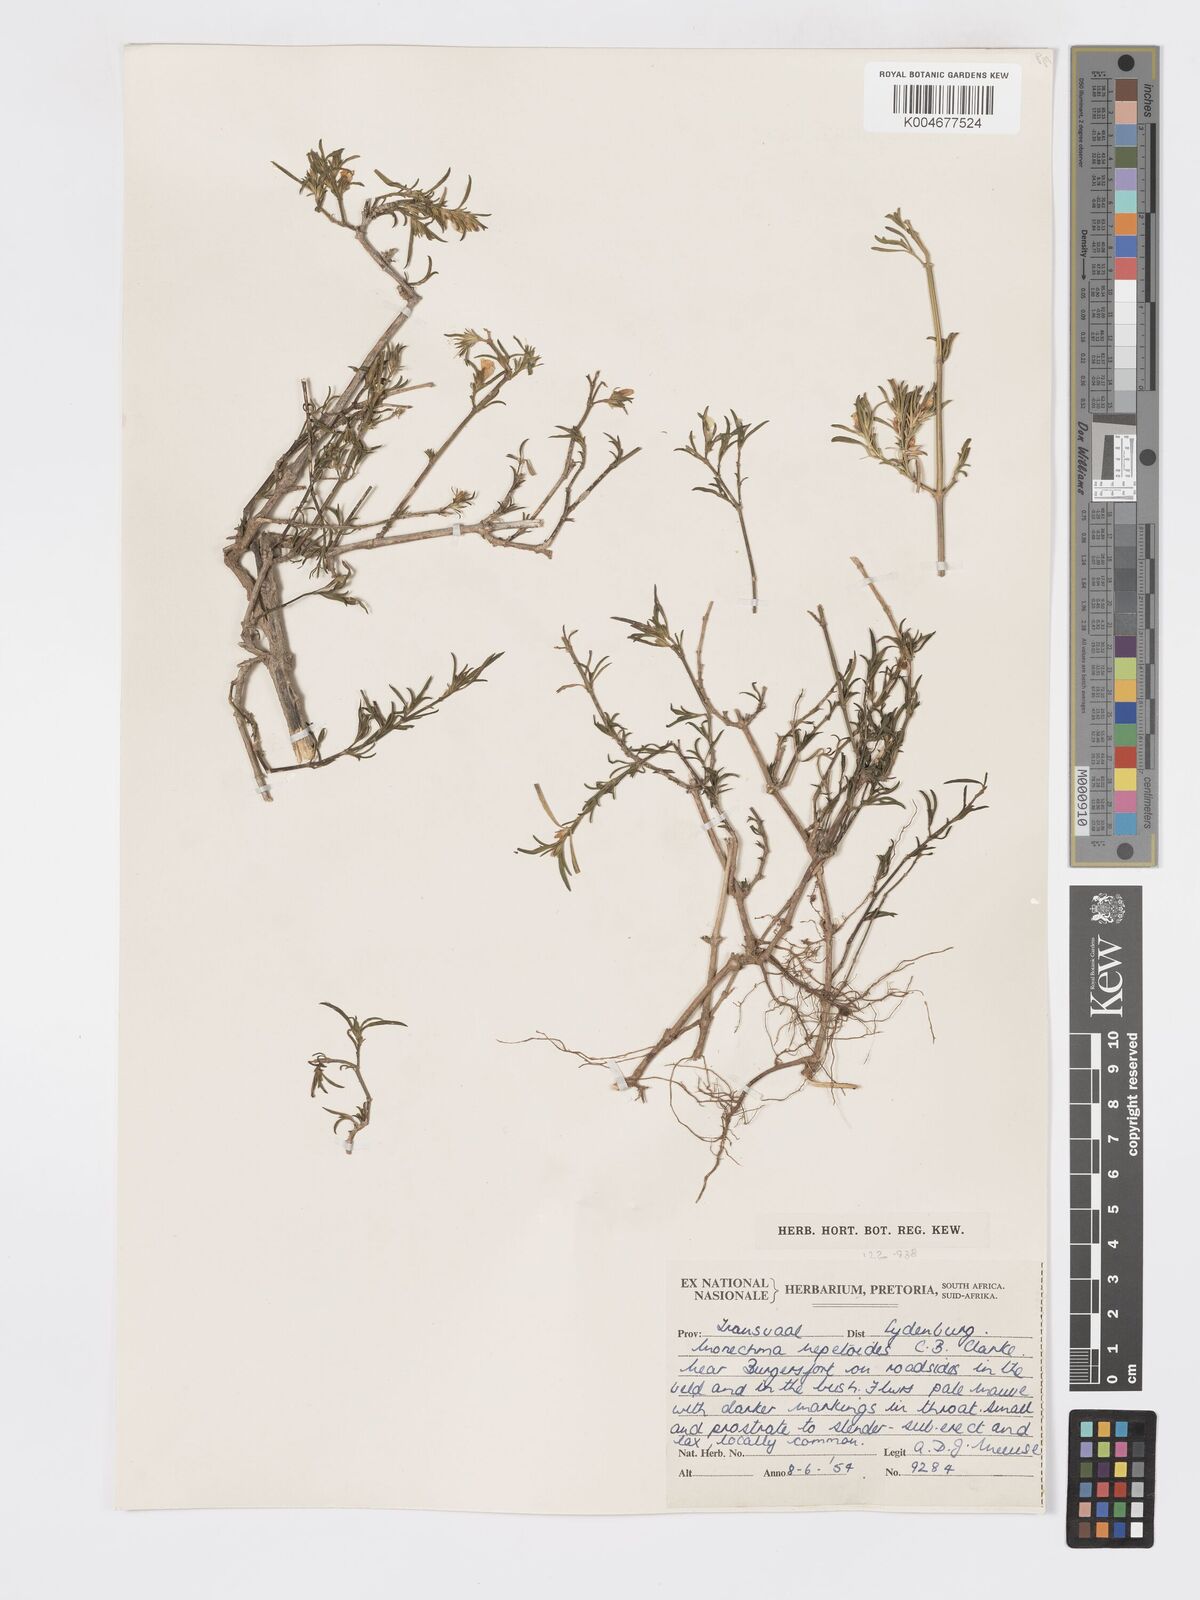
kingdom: Plantae
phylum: Tracheophyta
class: Magnoliopsida
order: Lamiales
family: Acanthaceae
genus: Pogonospermum
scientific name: Pogonospermum
